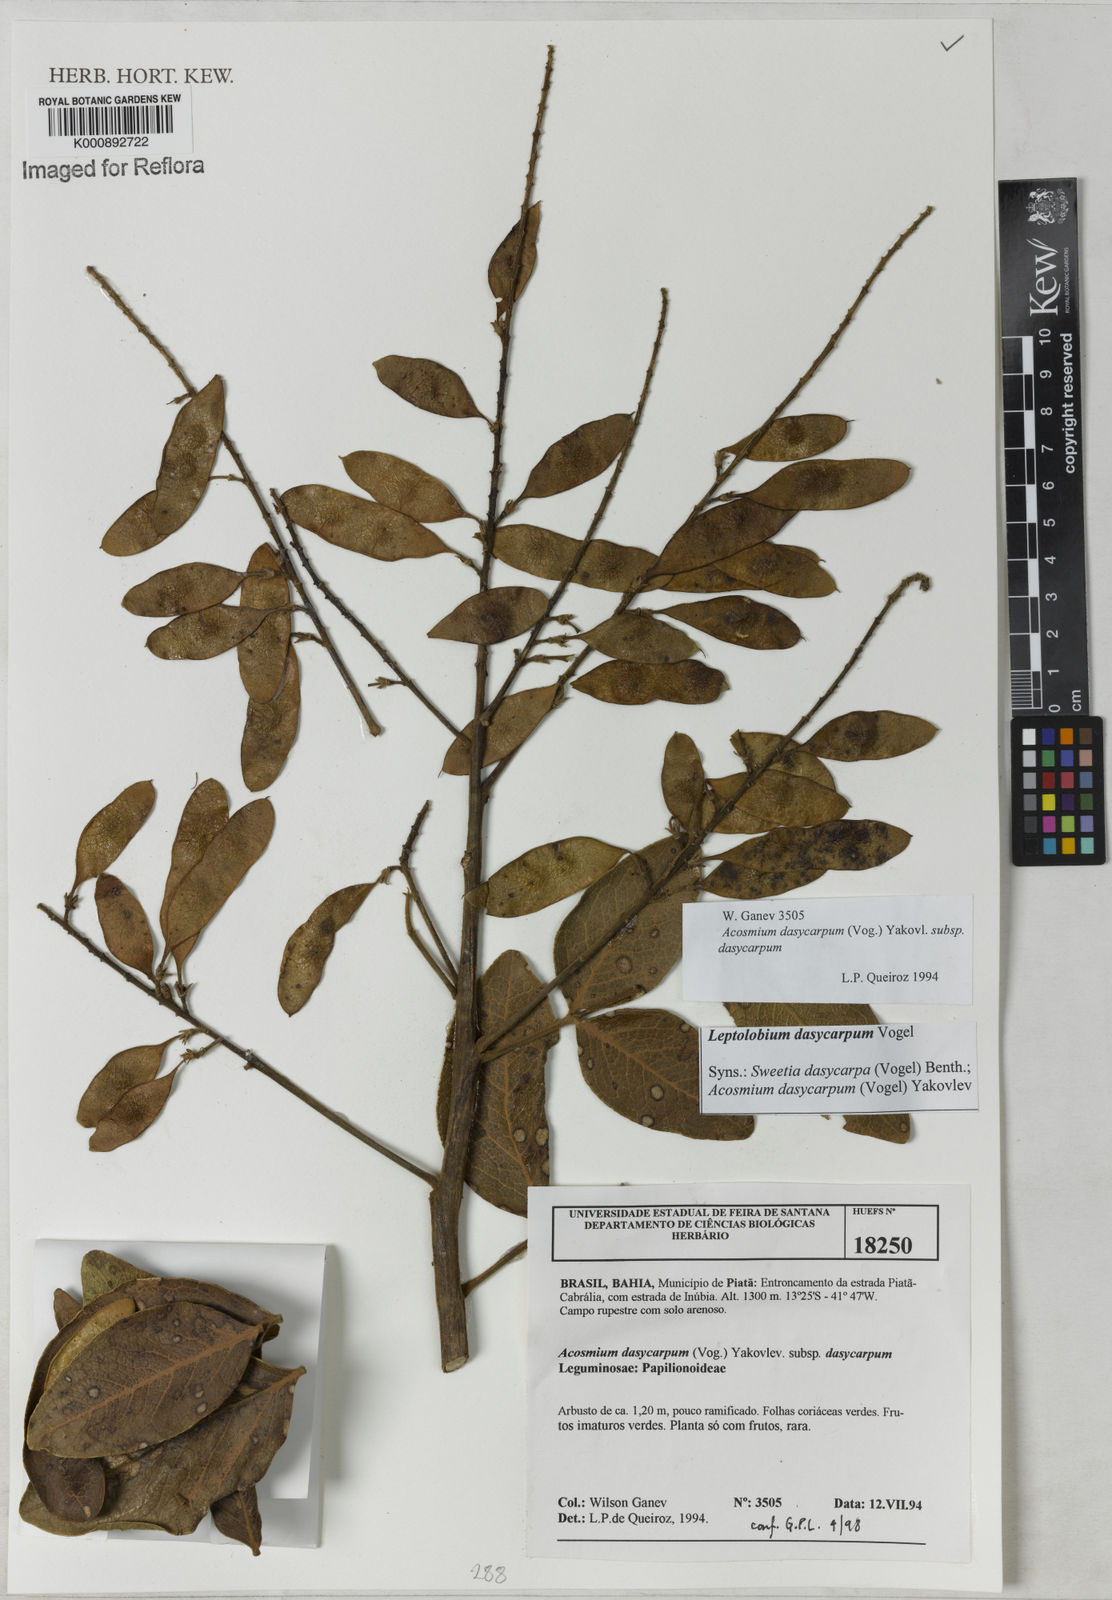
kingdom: Plantae
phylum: Tracheophyta
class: Magnoliopsida
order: Fabales
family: Fabaceae
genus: Leptolobium
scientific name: Leptolobium
